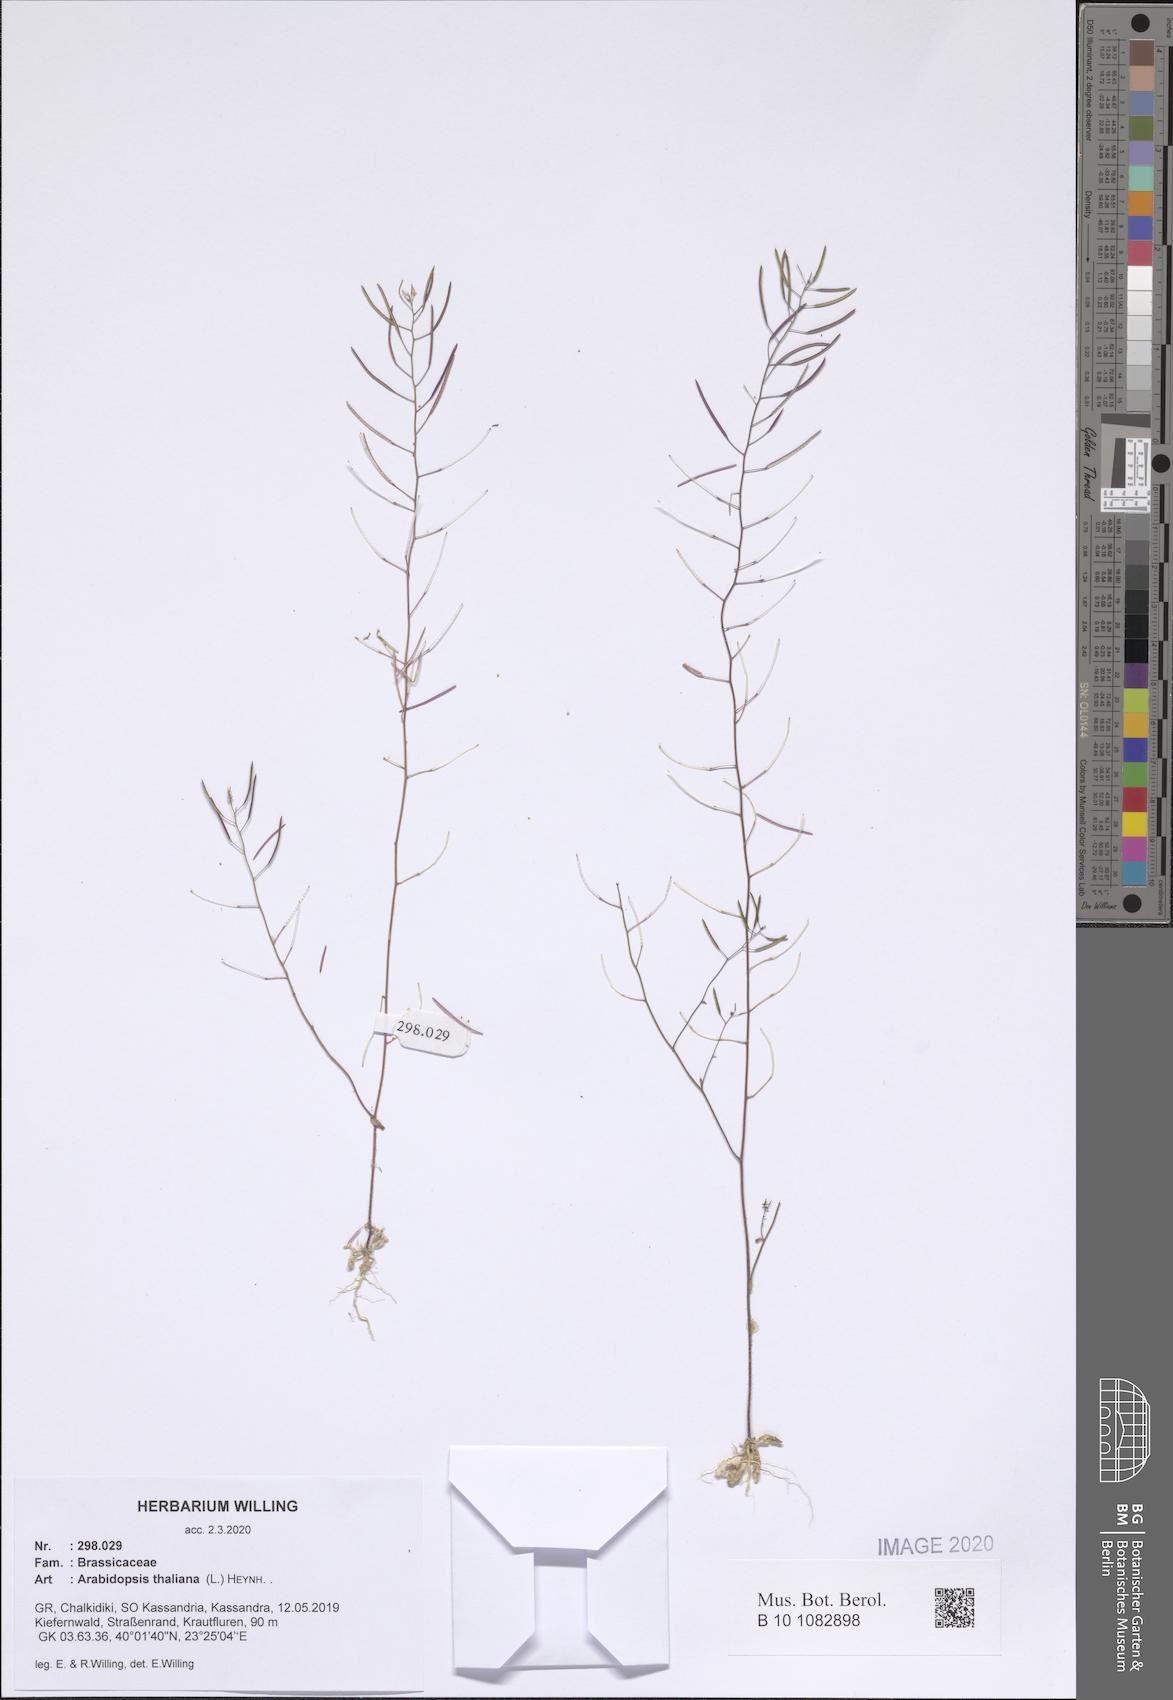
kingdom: Plantae
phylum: Tracheophyta
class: Magnoliopsida
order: Brassicales
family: Brassicaceae
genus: Arabidopsis
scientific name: Arabidopsis thaliana
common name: Thale cress
